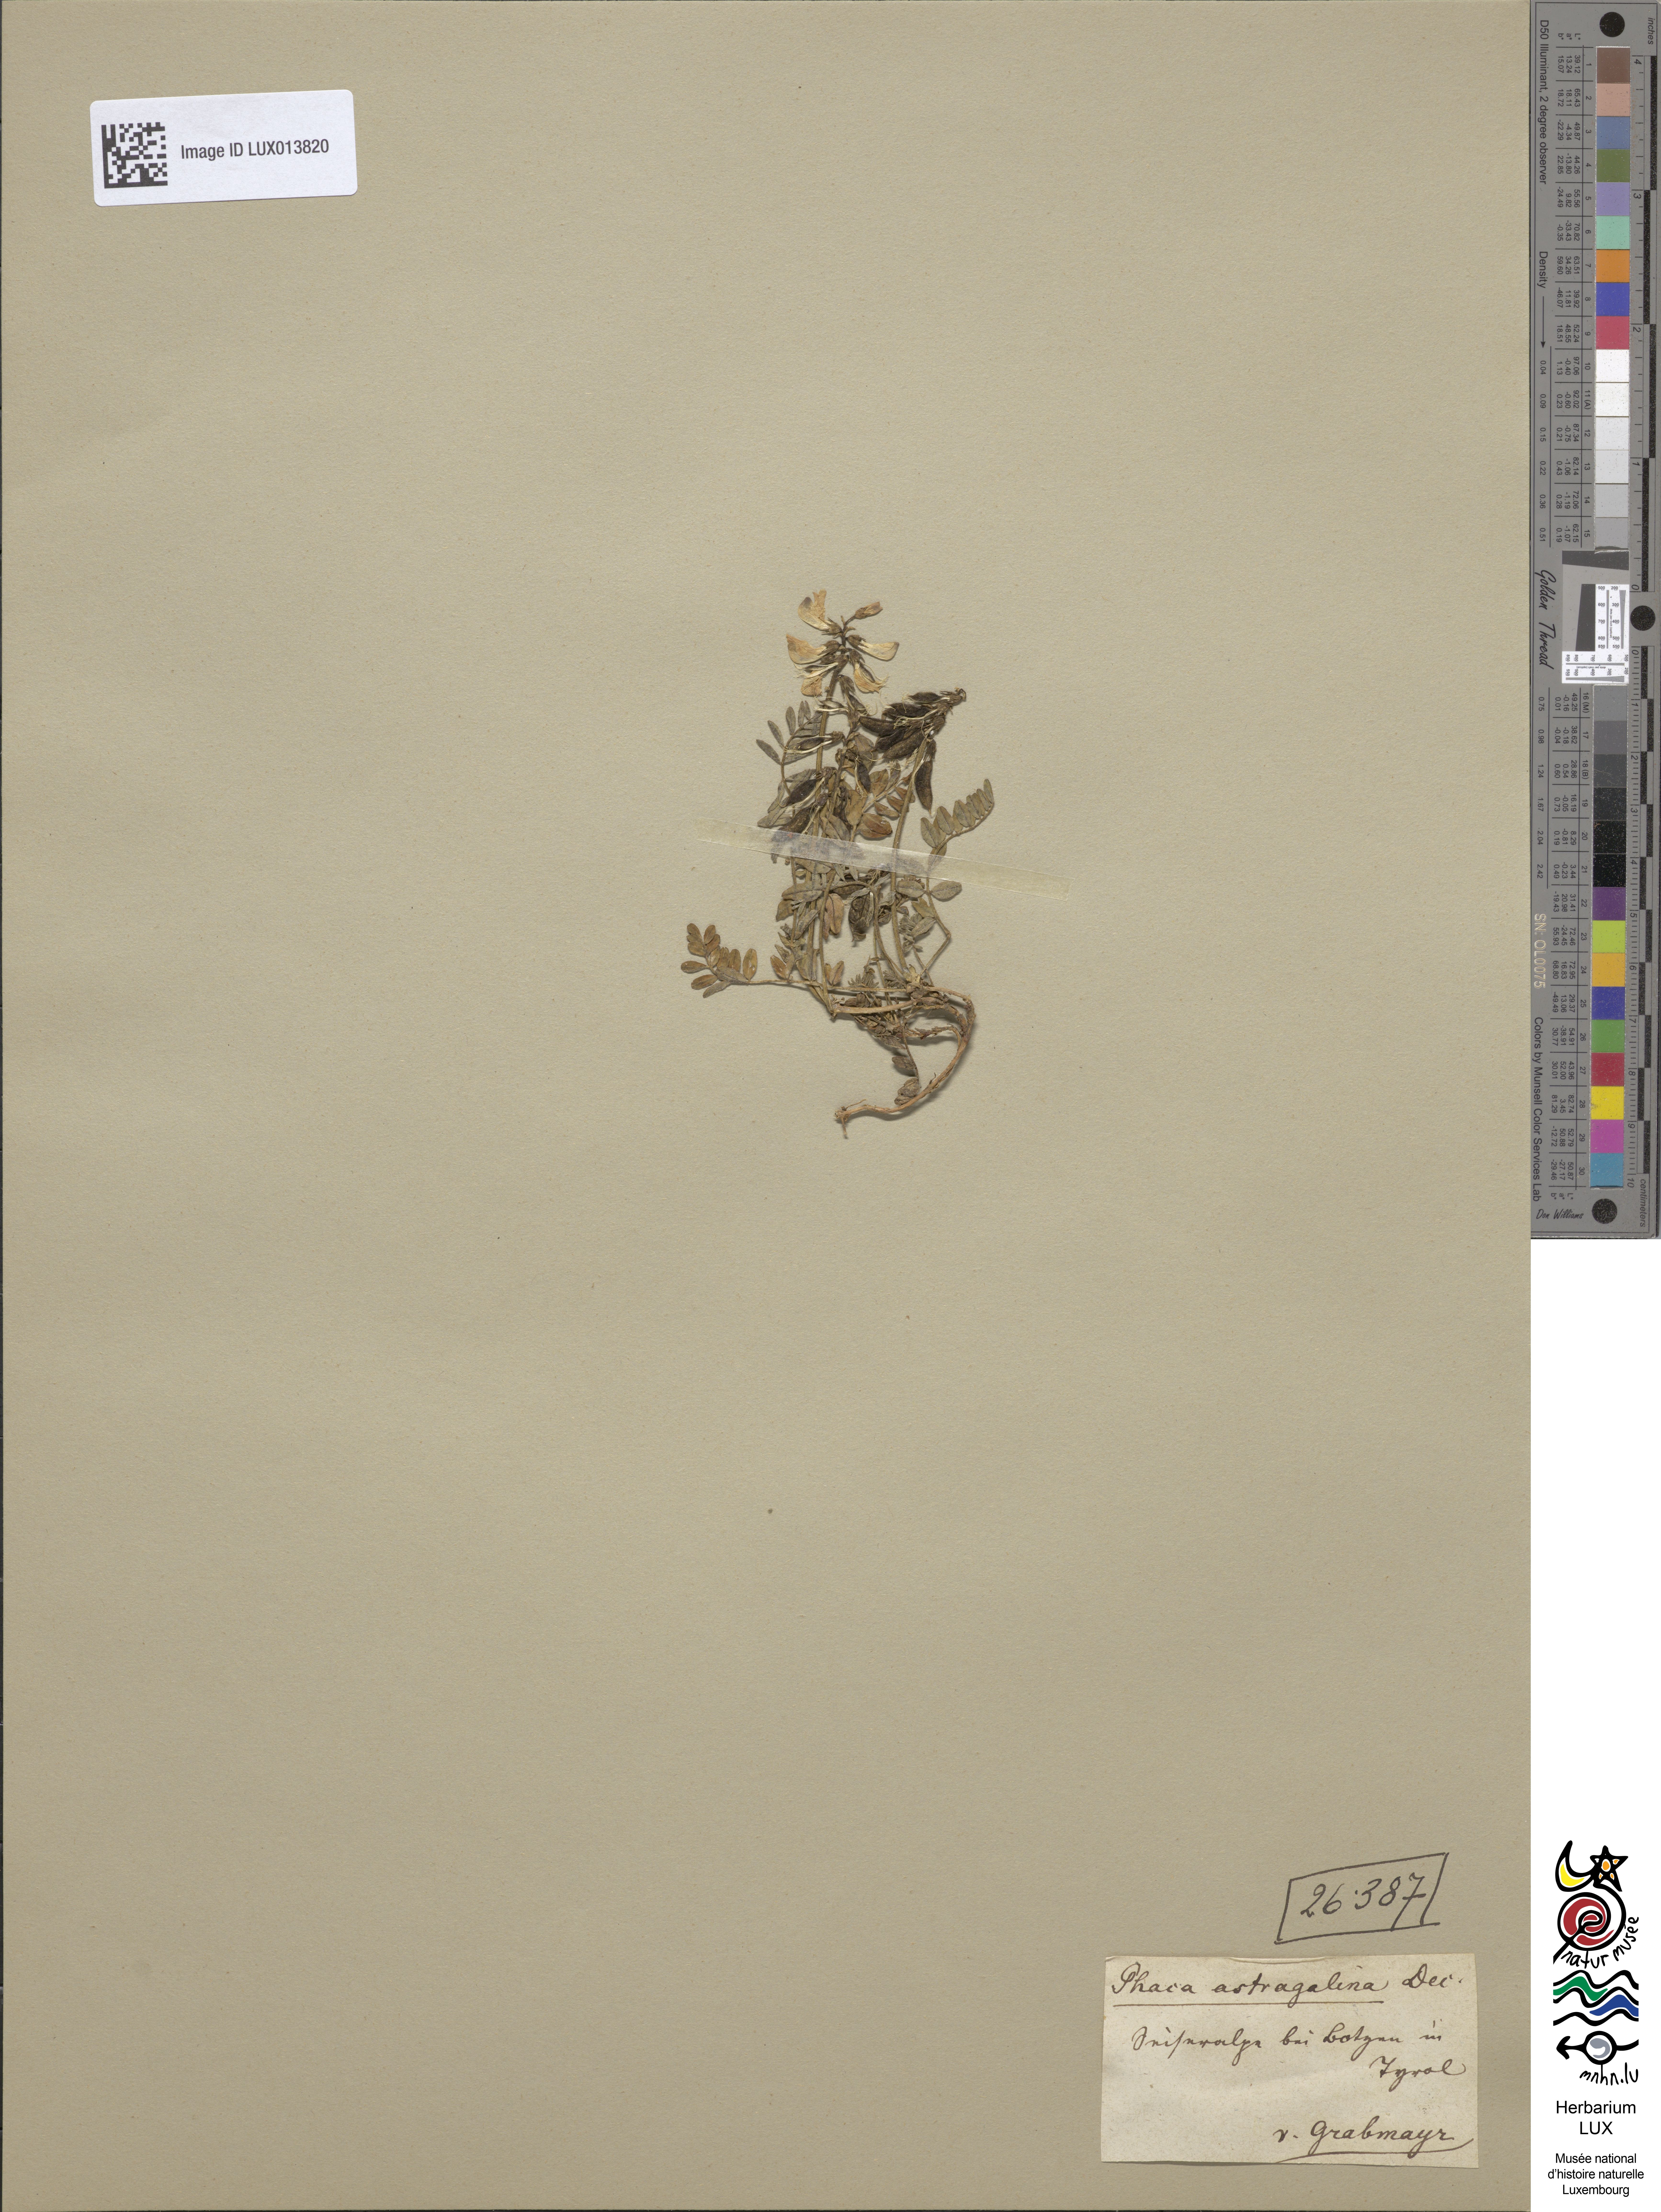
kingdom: Plantae
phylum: Tracheophyta
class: Magnoliopsida
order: Fabales
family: Fabaceae
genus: Astragalus
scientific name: Astragalus alpinus
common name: Alpine milk-vetch
